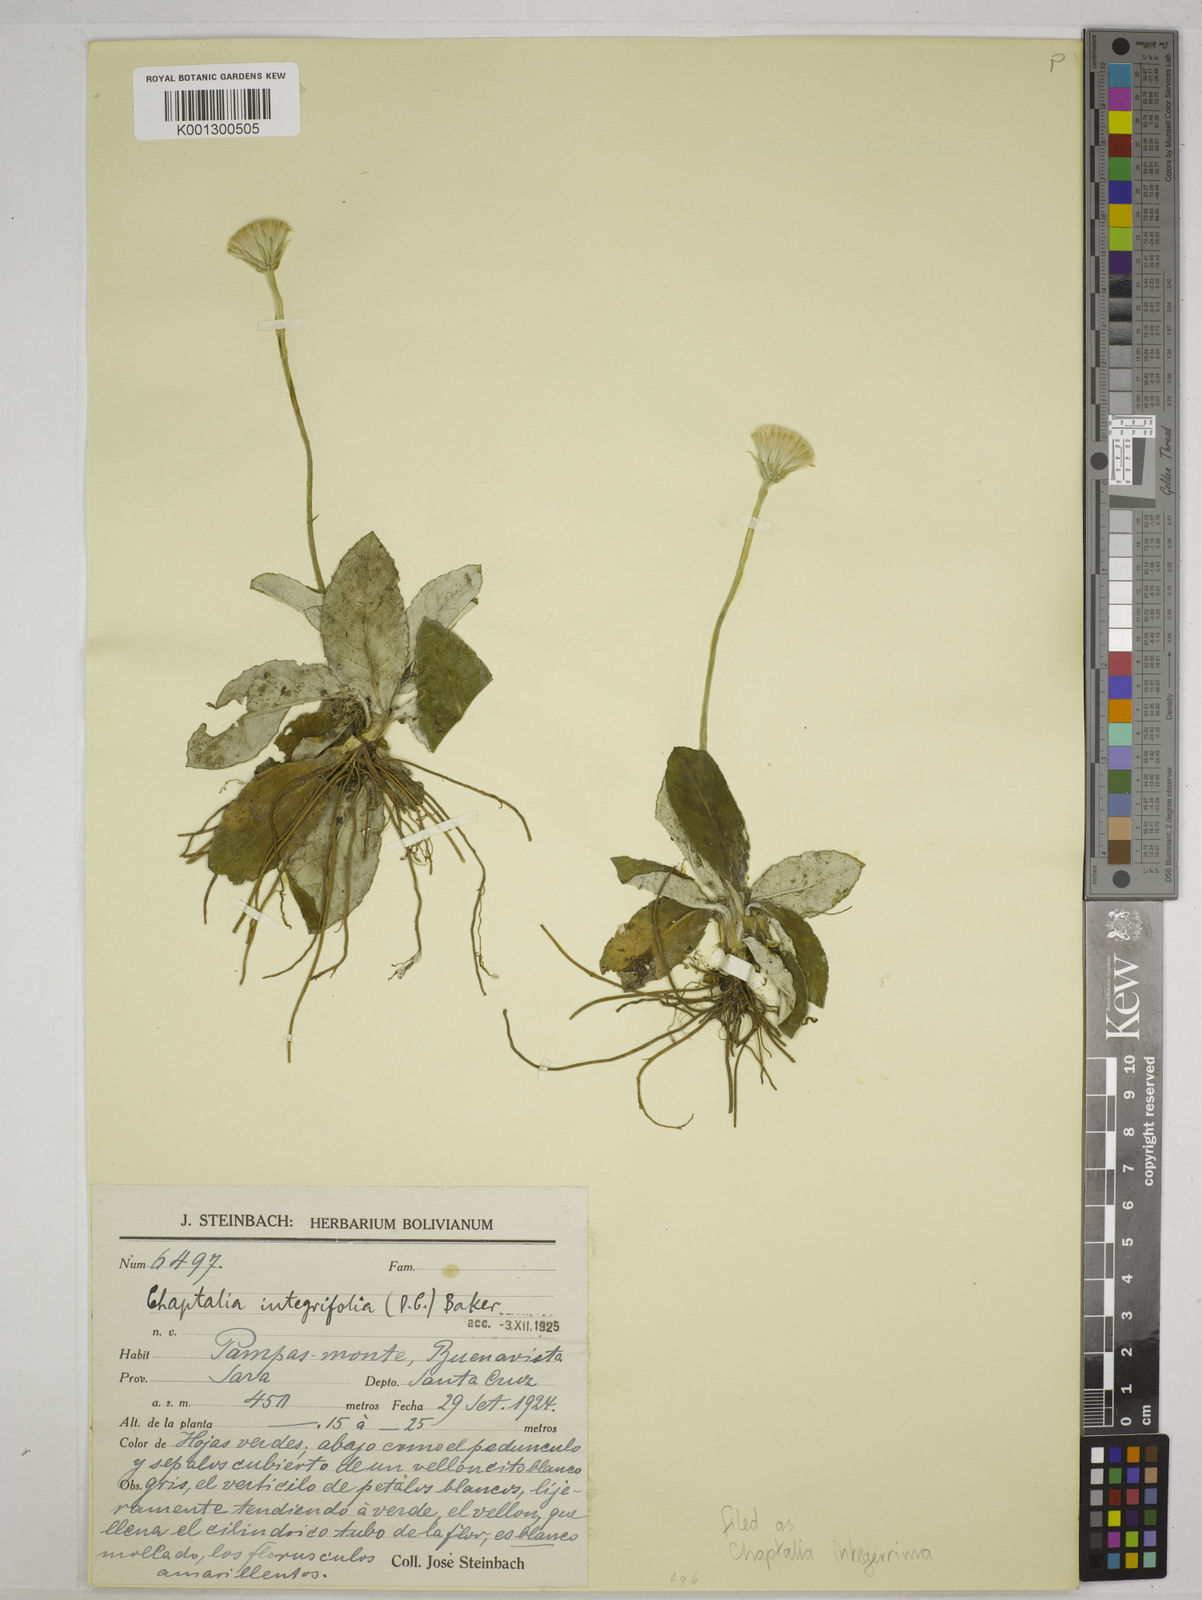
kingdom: Plantae
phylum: Tracheophyta
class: Magnoliopsida
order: Asterales
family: Asteraceae
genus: Chaptalia
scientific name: Chaptalia albicans
